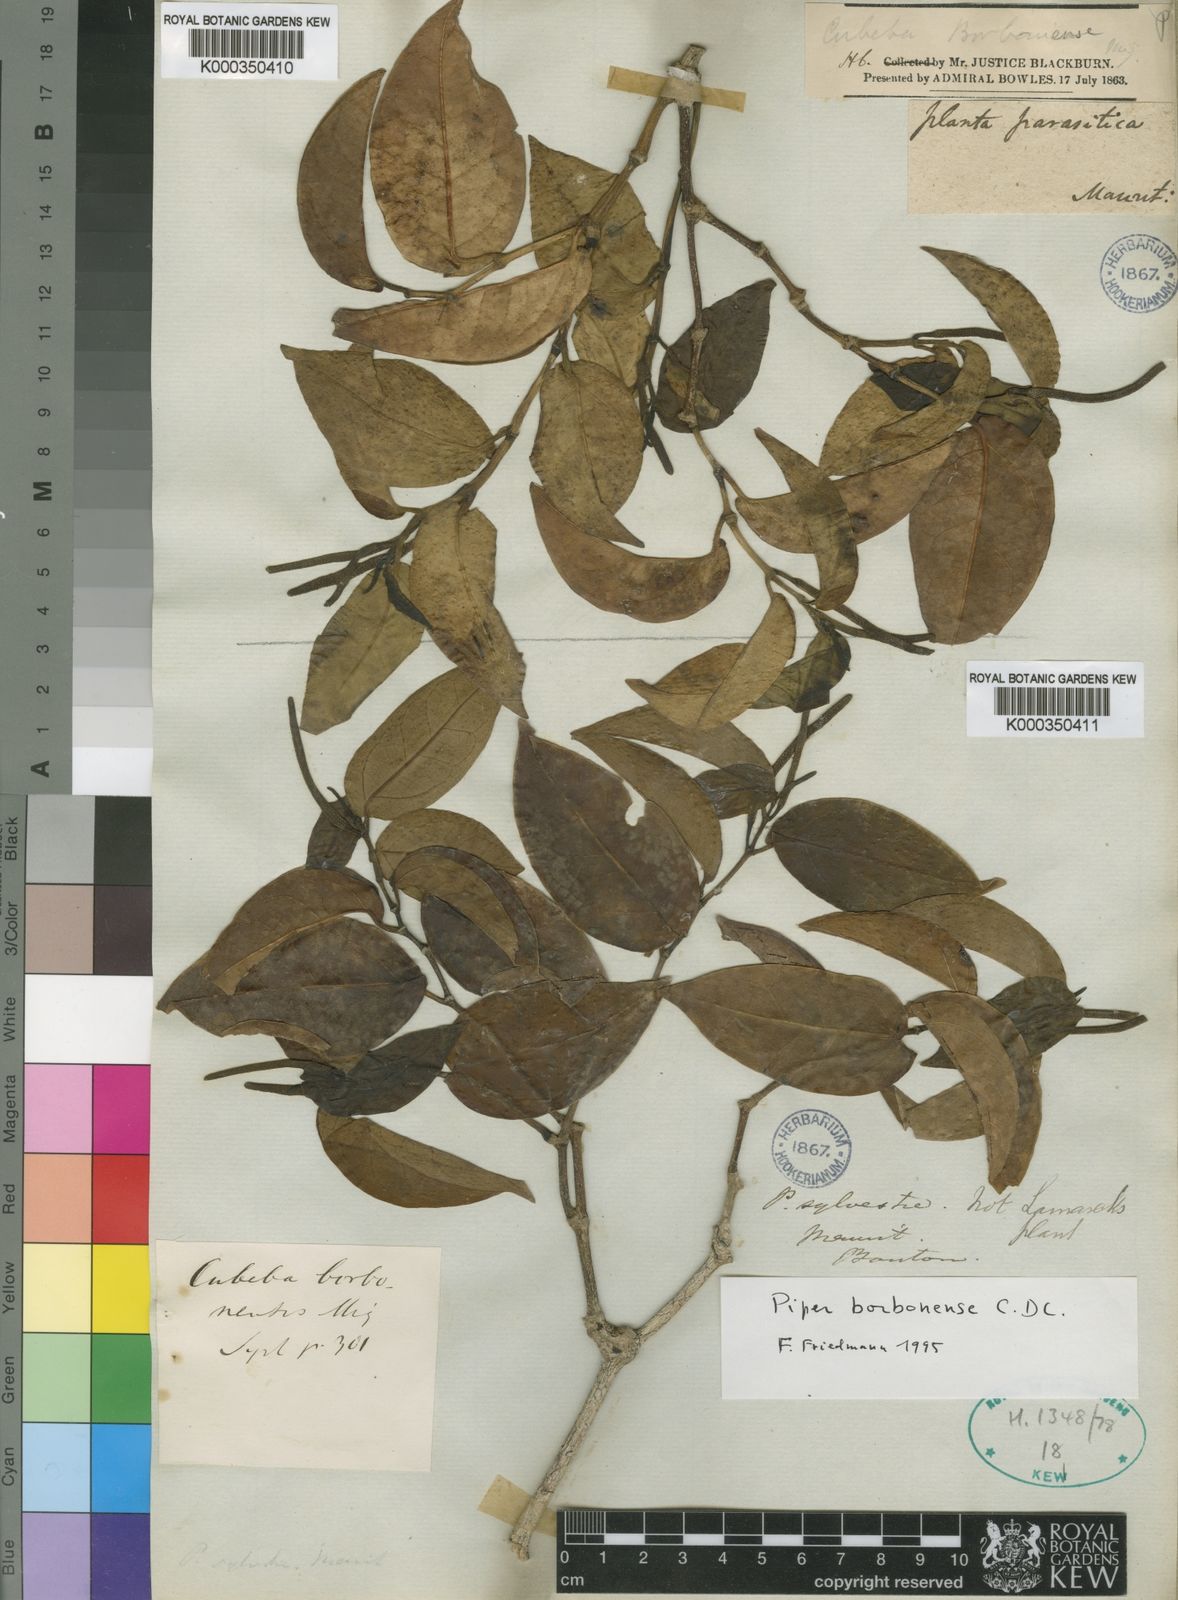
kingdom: Plantae
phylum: Tracheophyta
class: Magnoliopsida
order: Piperales
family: Piperaceae
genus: Piper
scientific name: Piper borbonense
